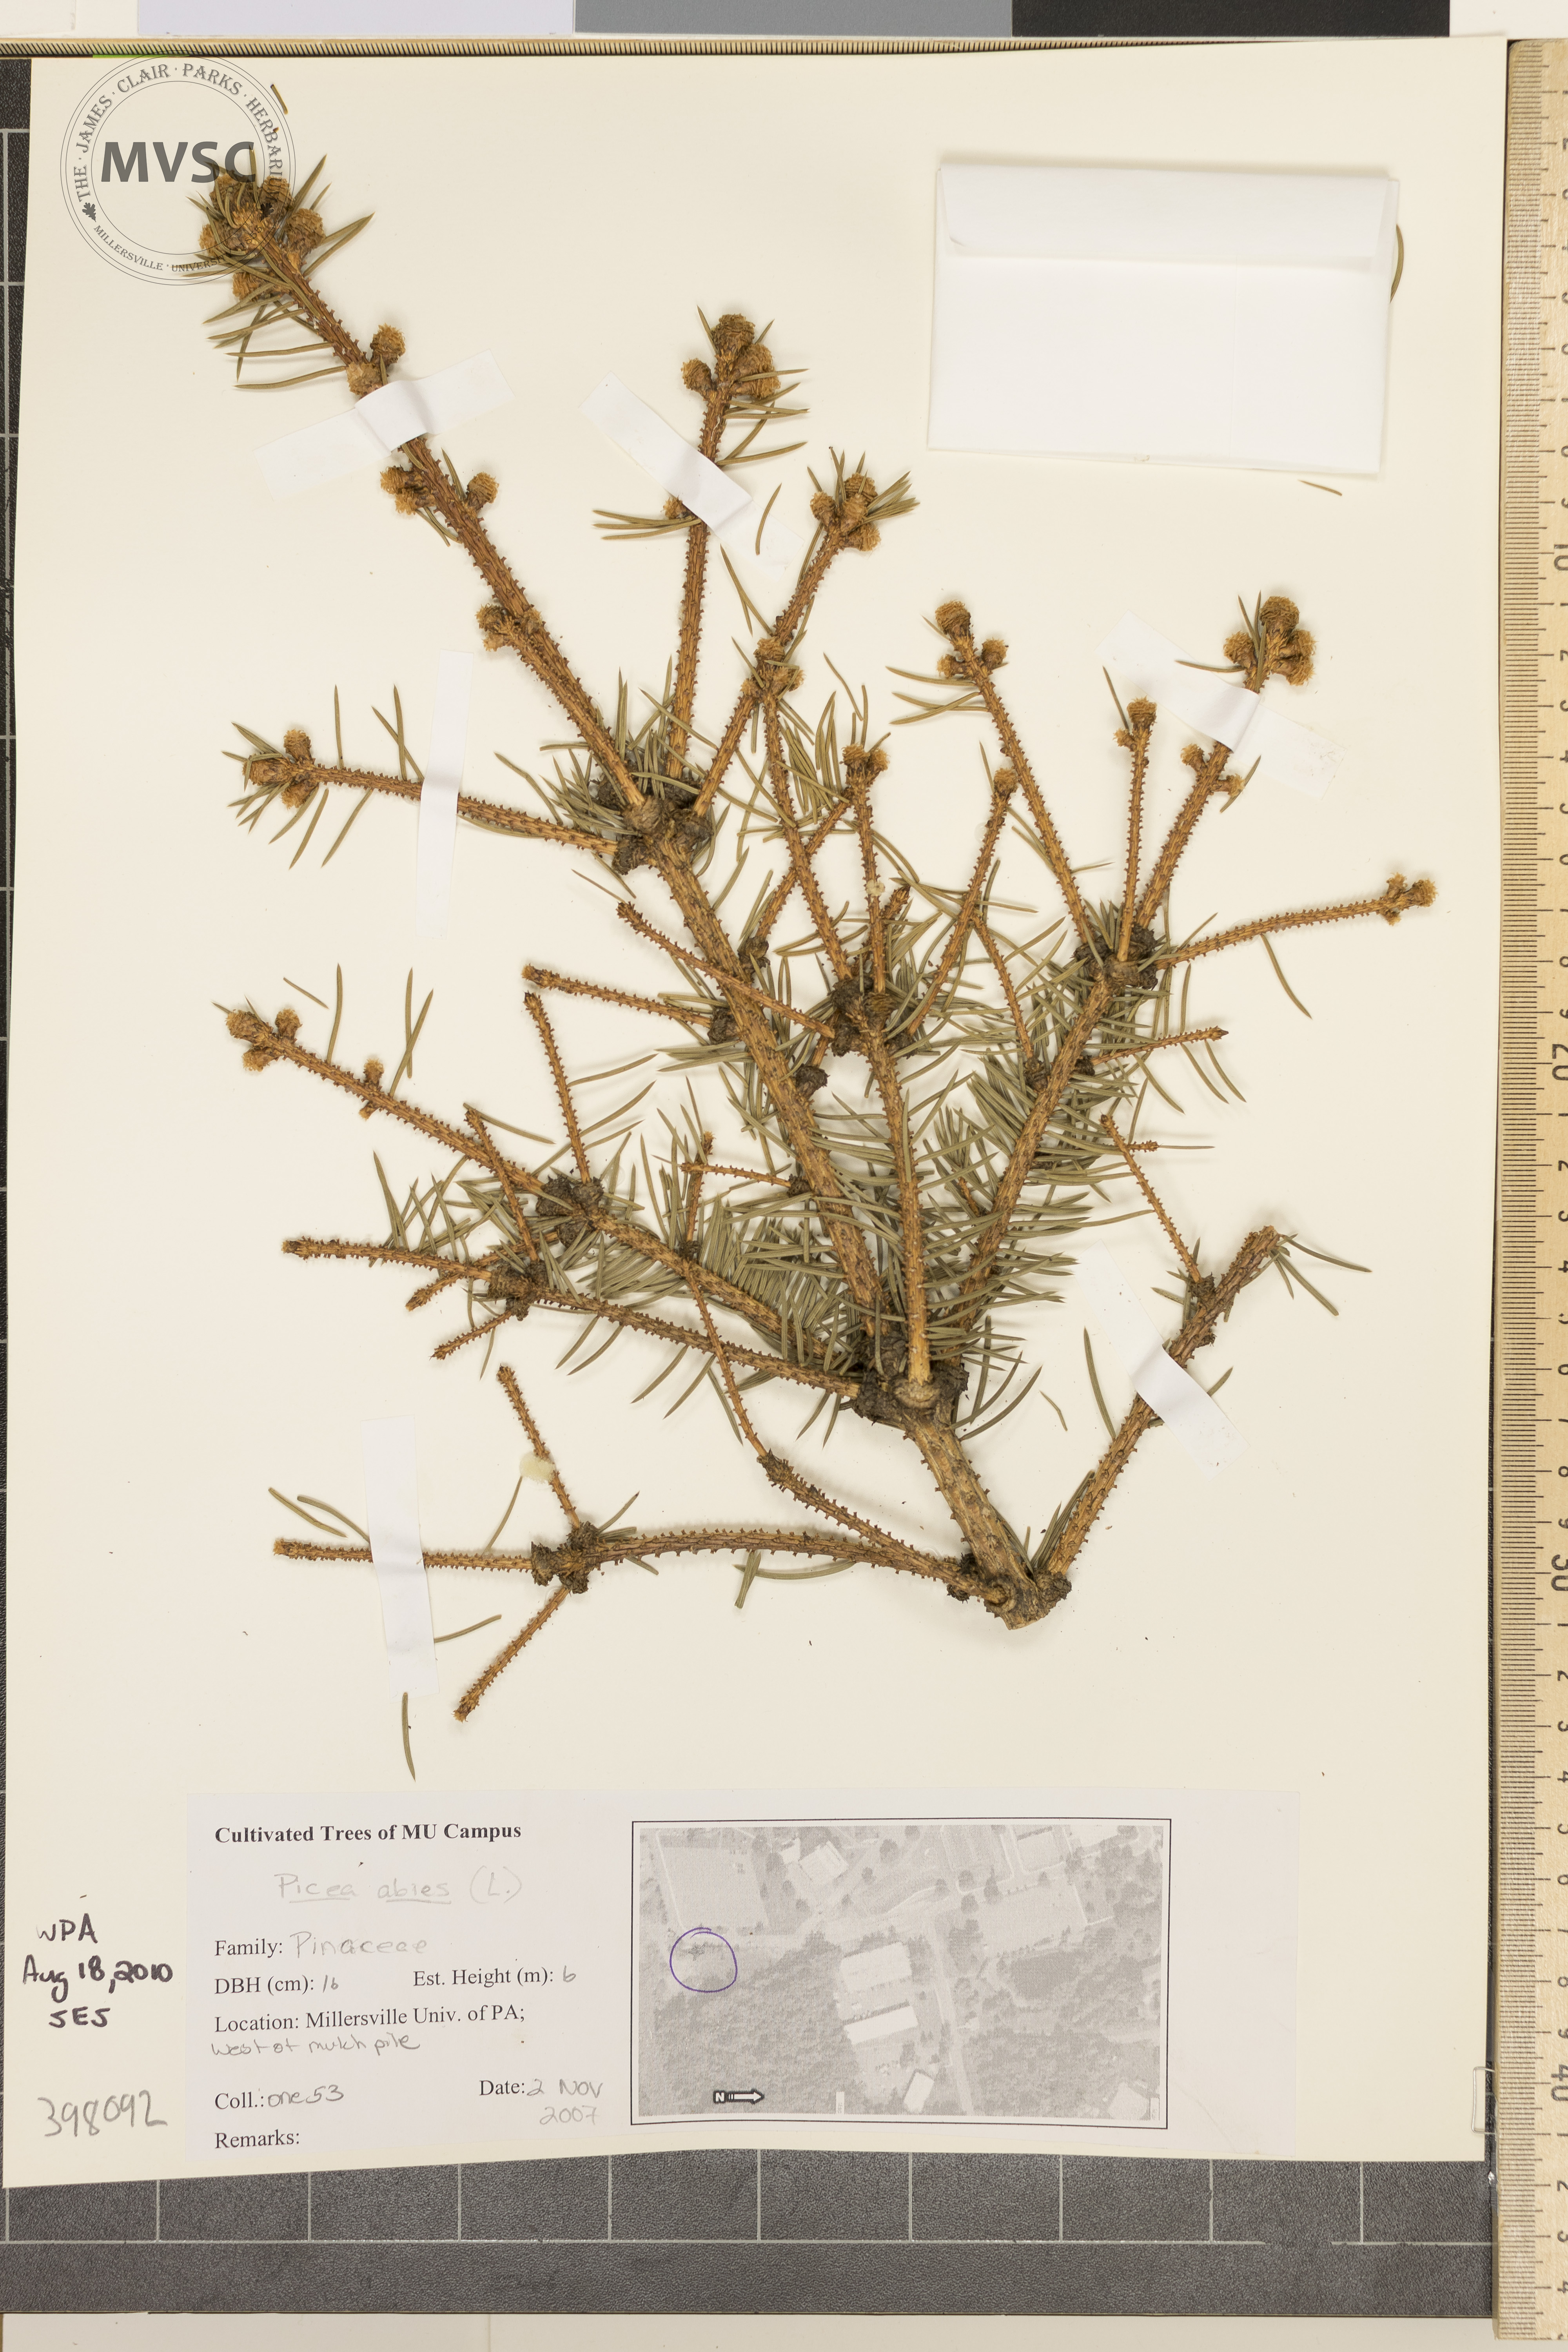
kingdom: Plantae
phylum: Tracheophyta
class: Pinopsida
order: Pinales
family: Pinaceae
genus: Picea
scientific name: Picea abies
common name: Norway spruce
